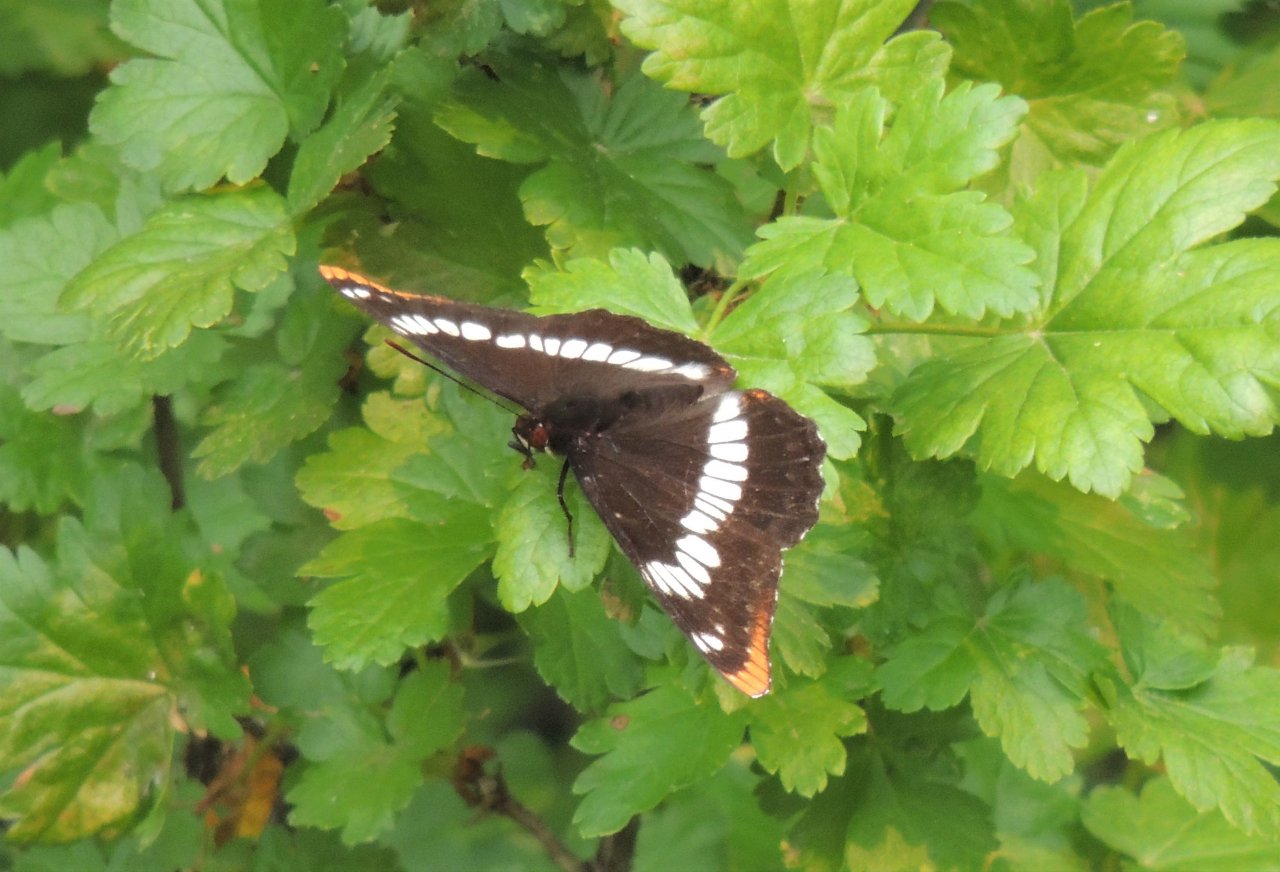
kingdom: Animalia
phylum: Arthropoda
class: Insecta
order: Lepidoptera
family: Nymphalidae
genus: Limenitis
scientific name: Limenitis lorquini
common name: Lorquin's Admiral
